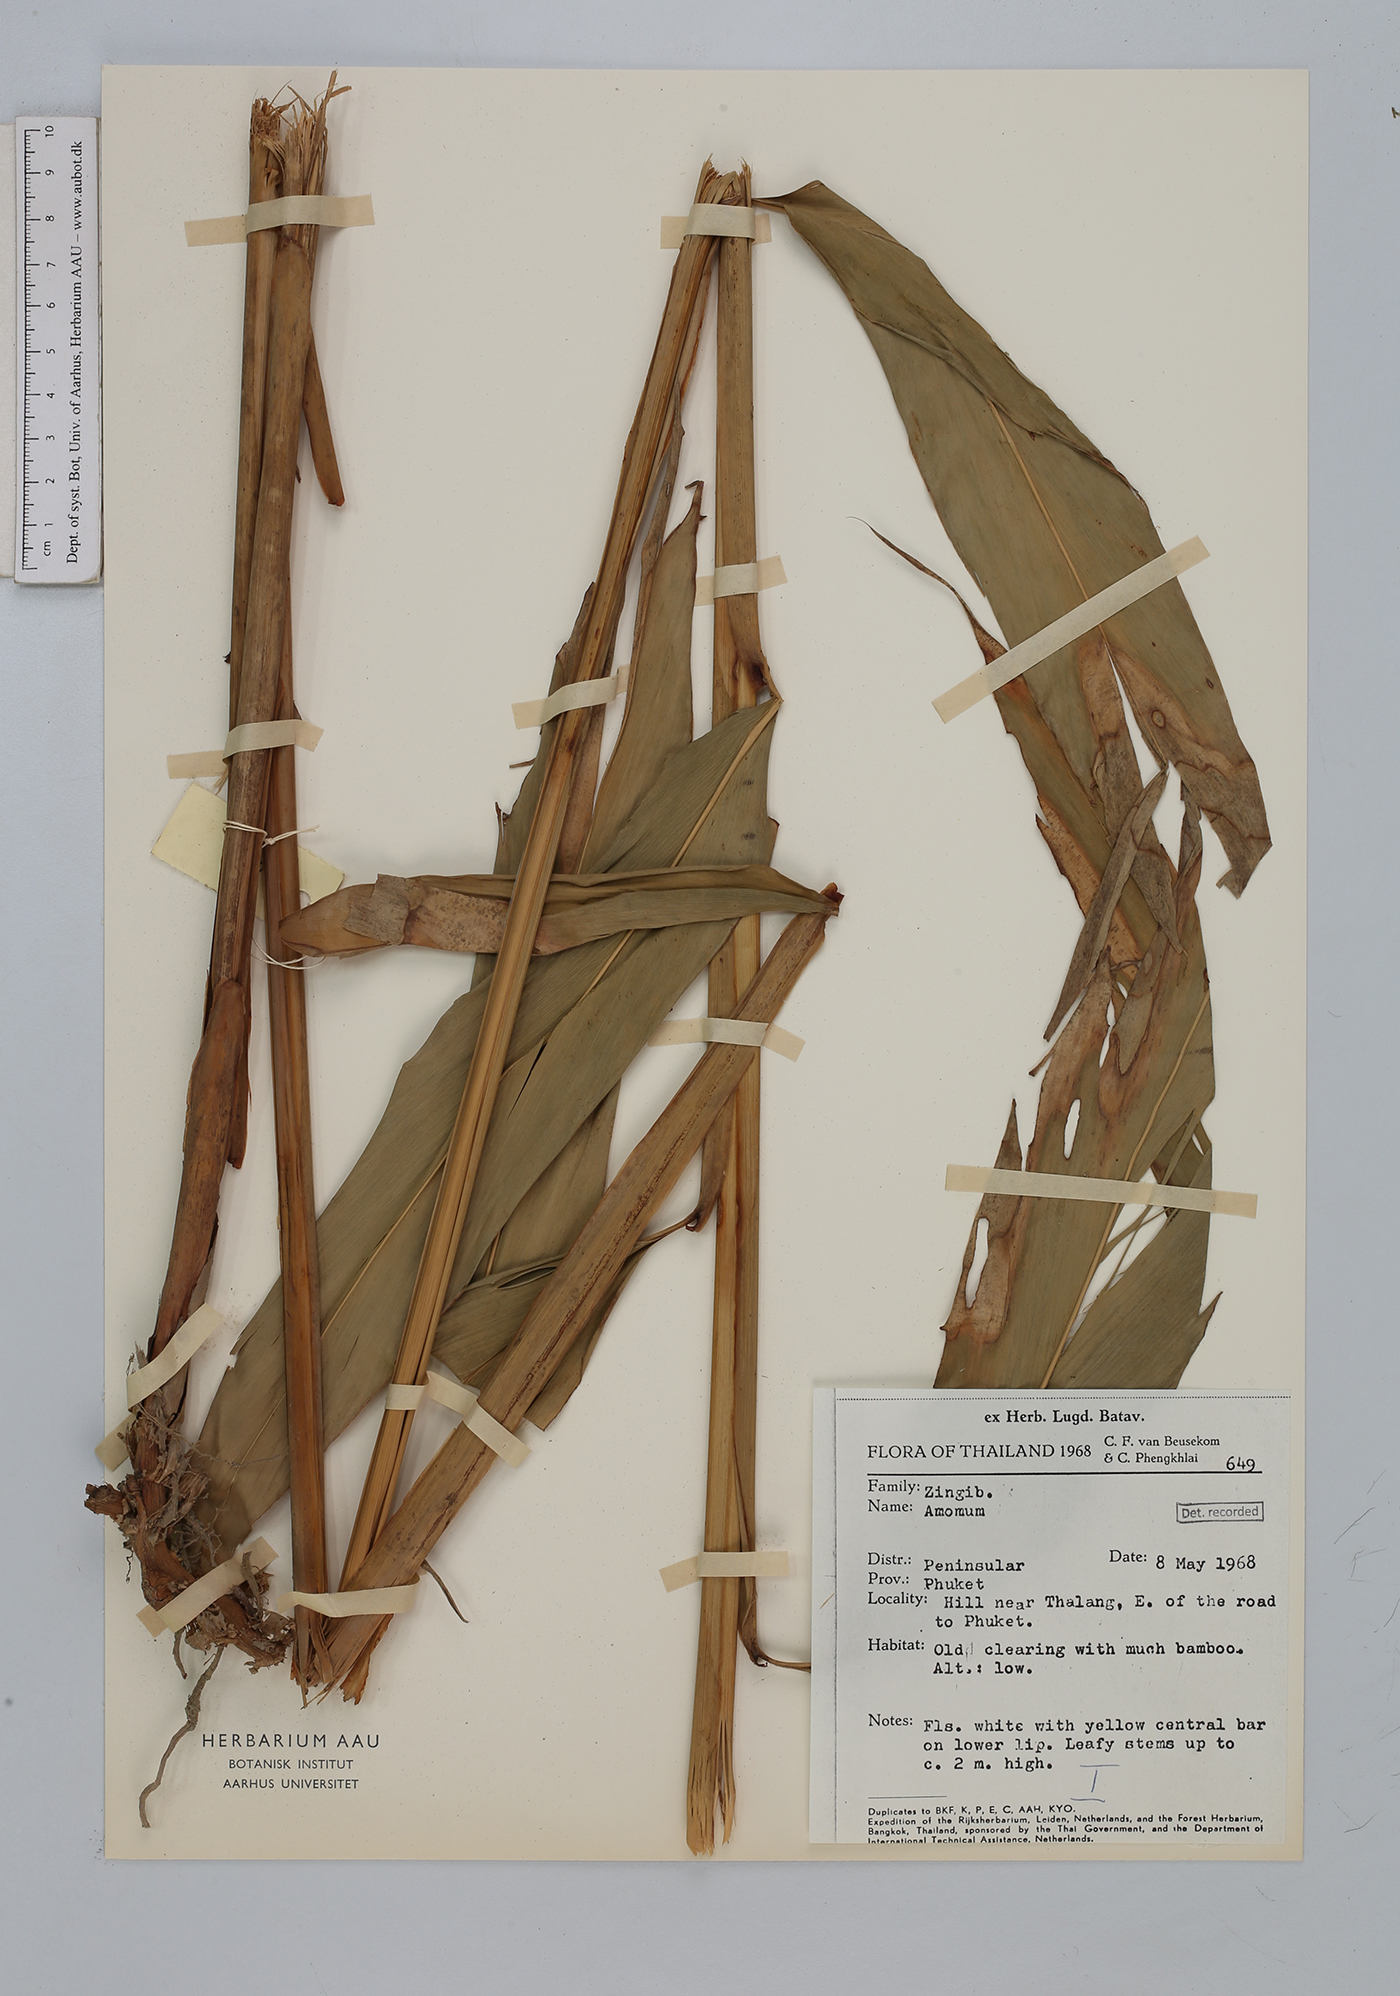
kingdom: Plantae
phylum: Tracheophyta
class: Liliopsida
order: Zingiberales
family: Zingiberaceae
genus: Amomum
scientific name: Amomum
